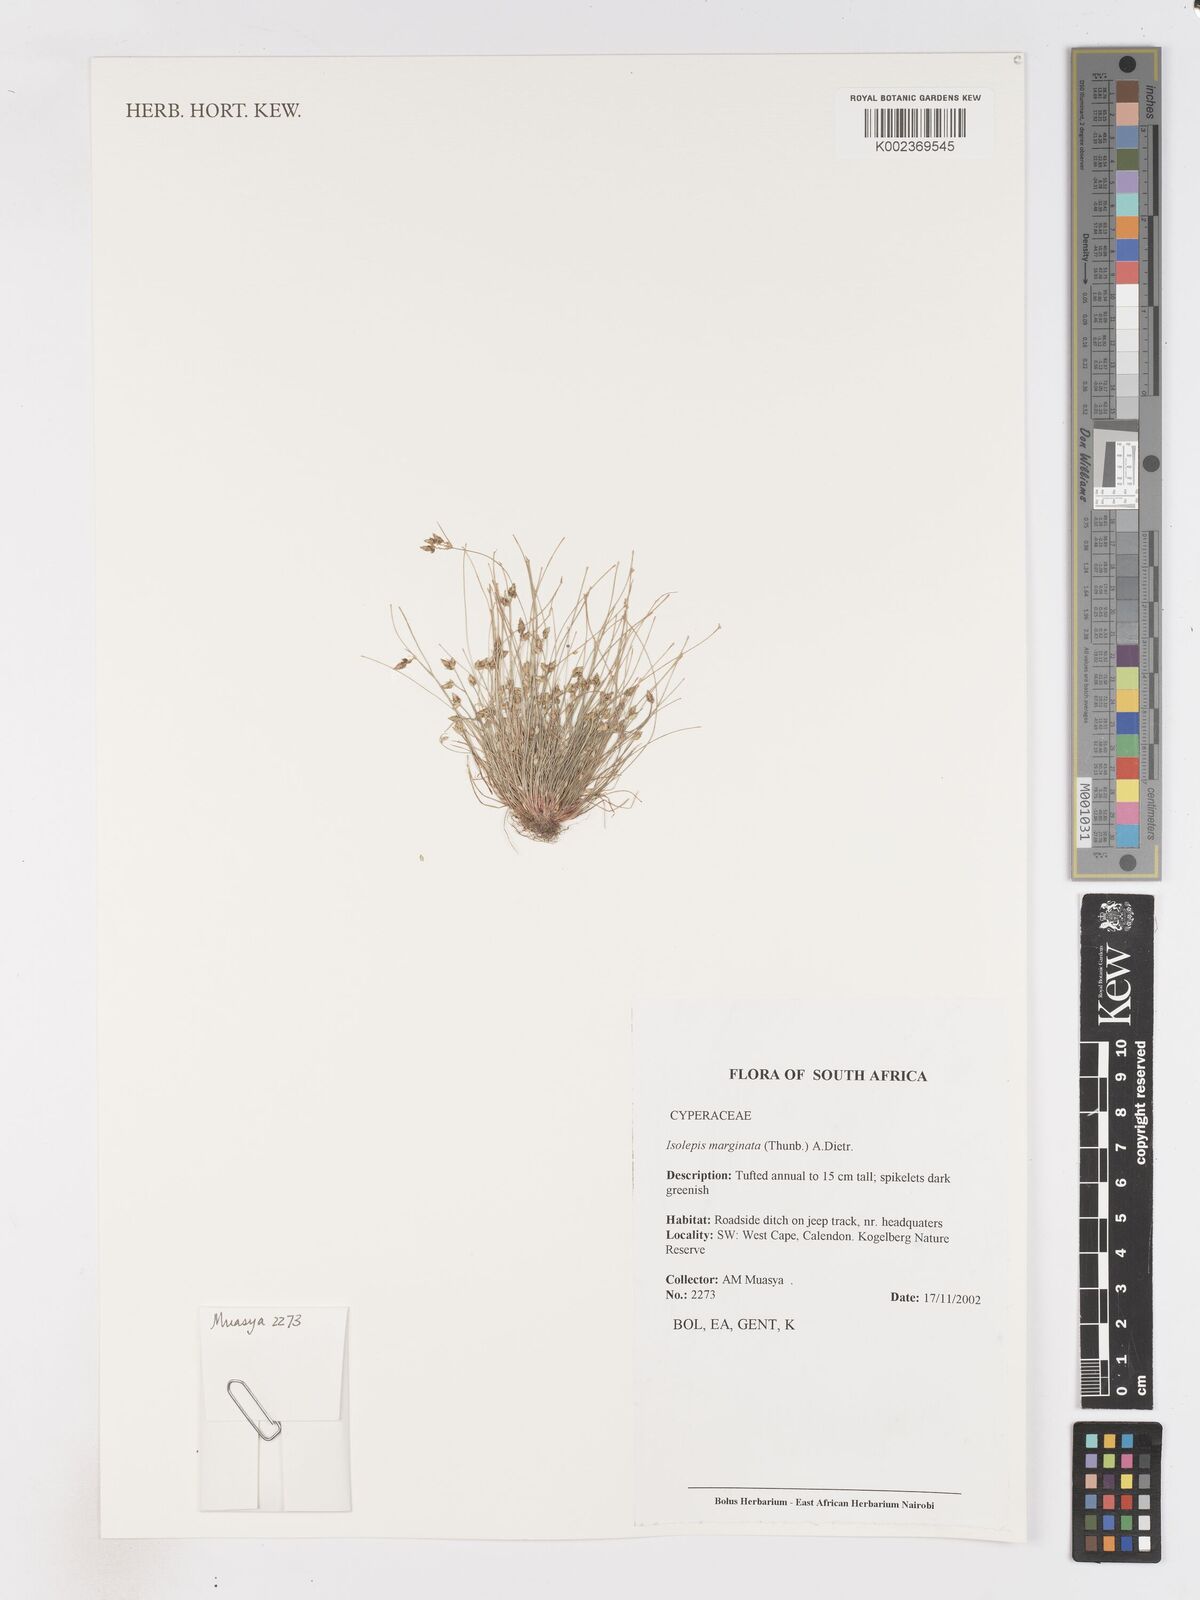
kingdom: Plantae
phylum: Tracheophyta
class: Liliopsida
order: Poales
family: Cyperaceae
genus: Isolepis
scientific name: Isolepis marginata
